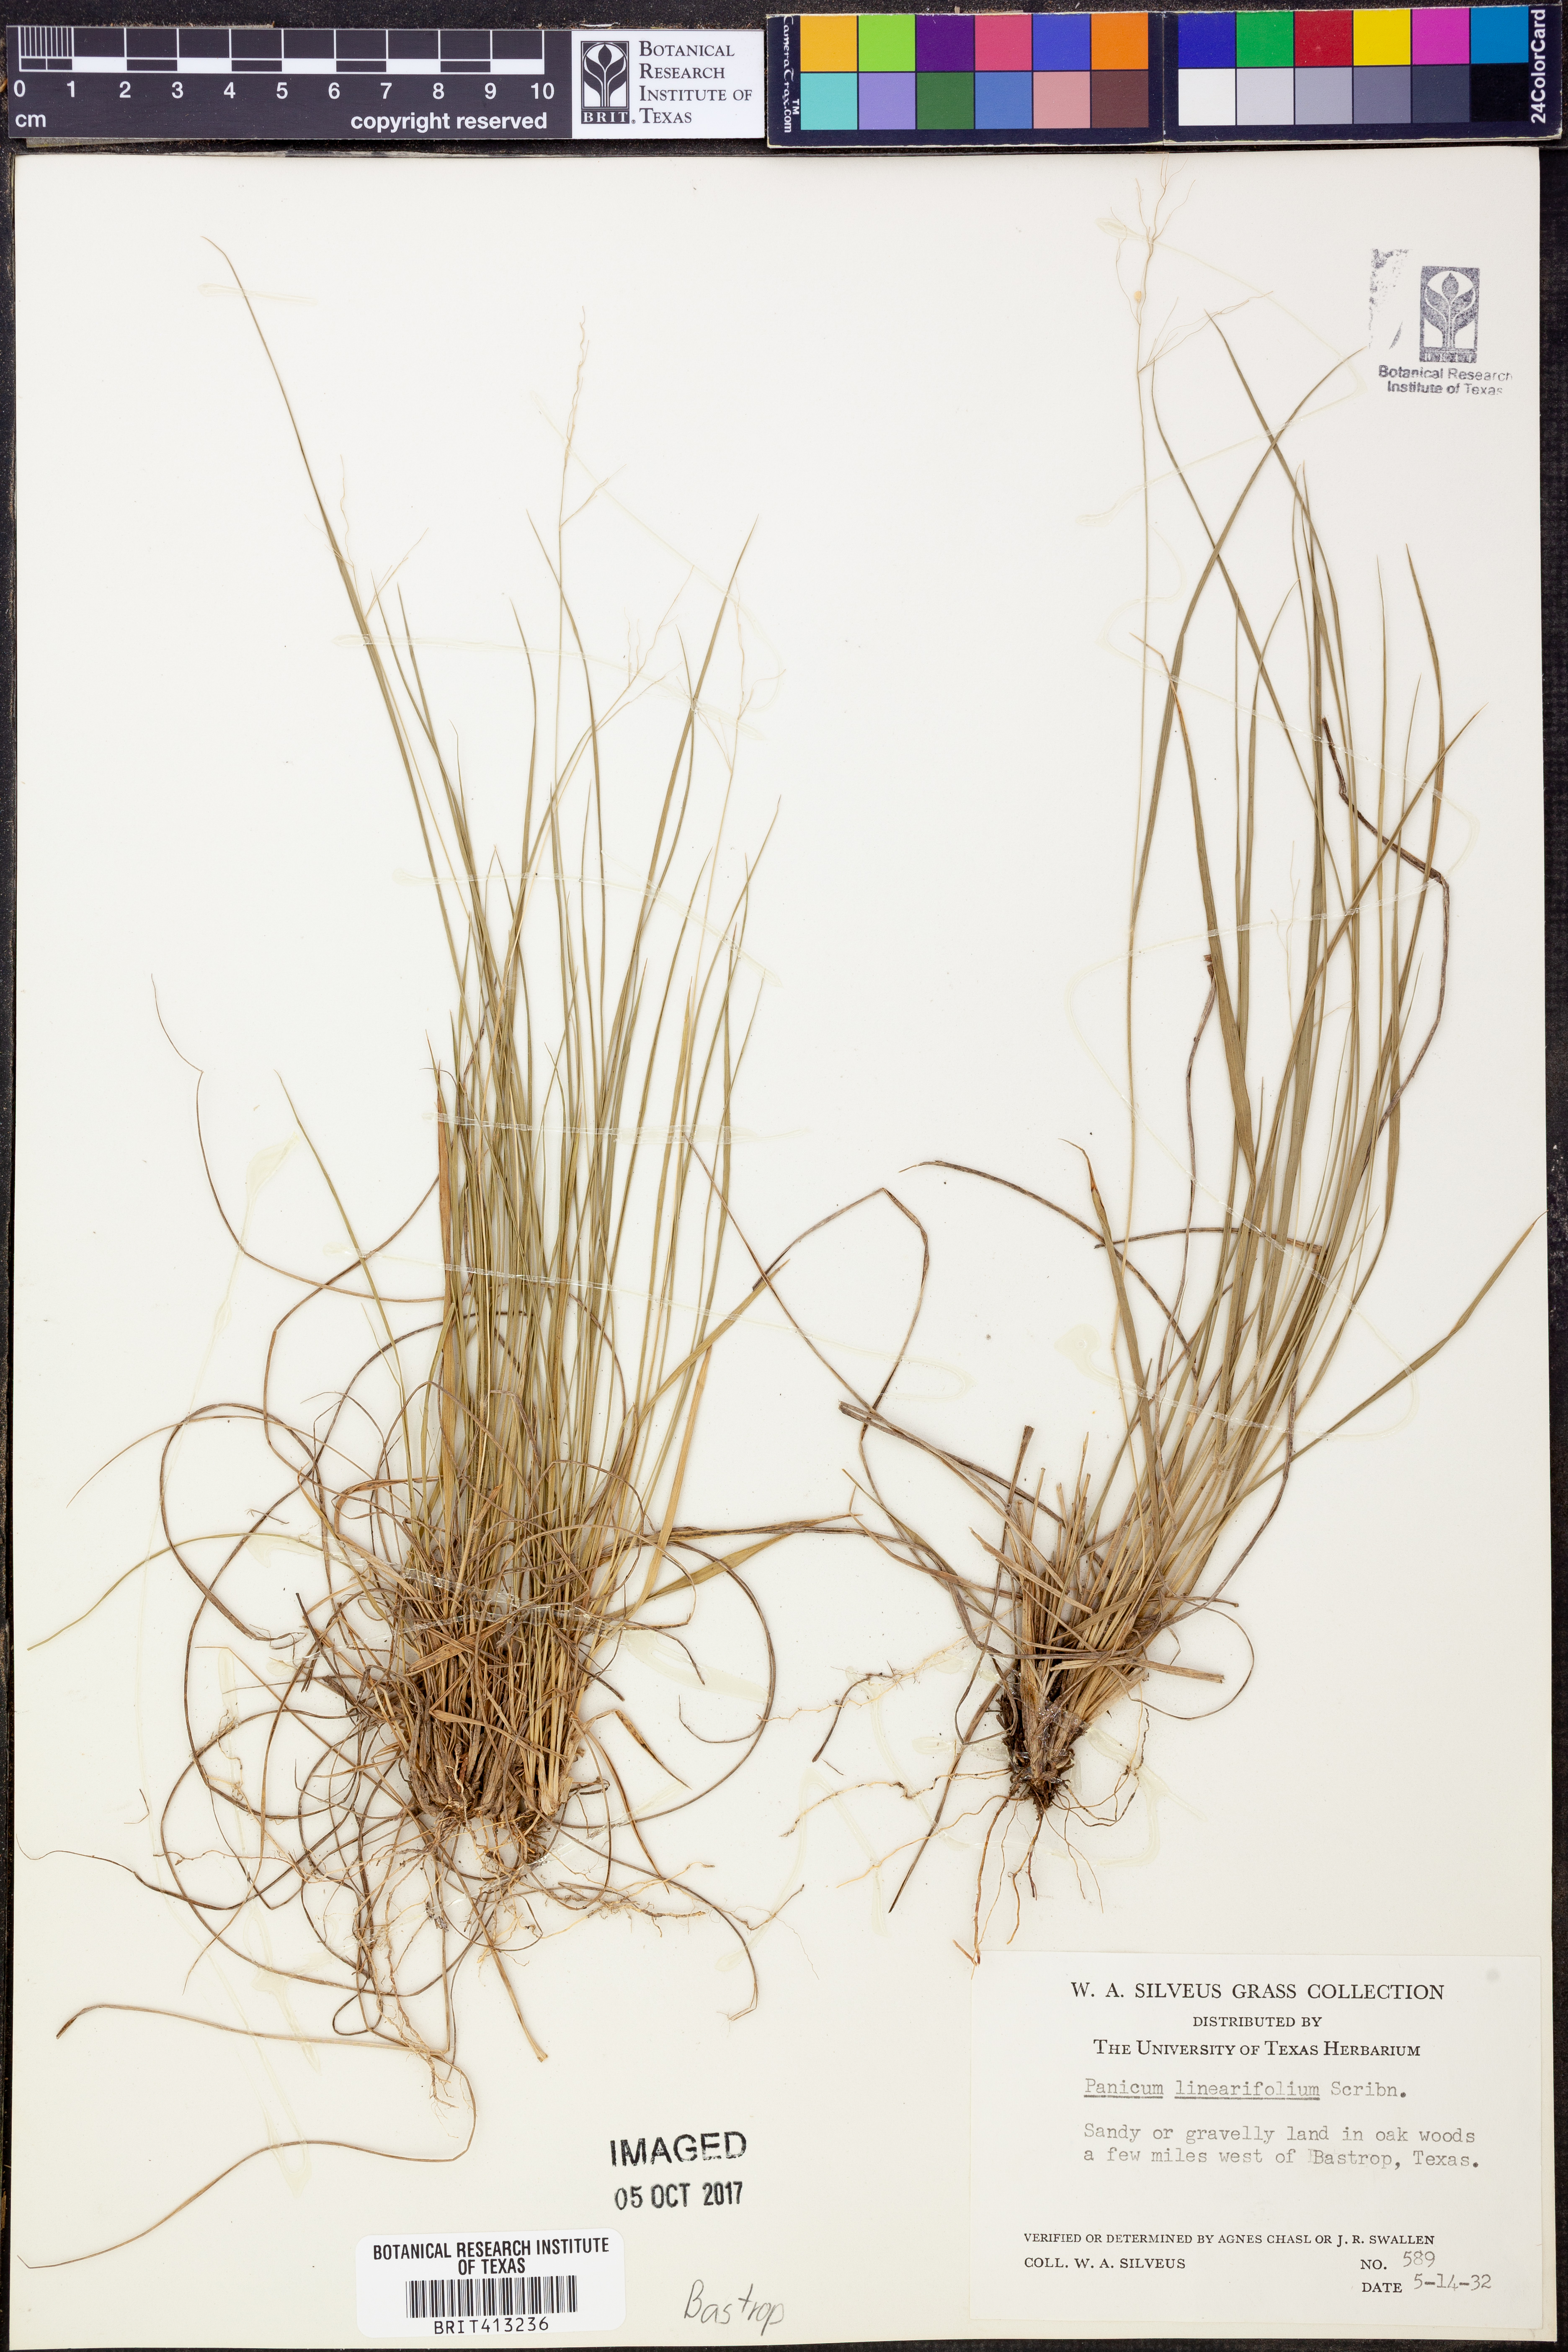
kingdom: Plantae
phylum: Tracheophyta
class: Liliopsida
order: Poales
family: Poaceae
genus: Dichanthelium
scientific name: Dichanthelium linearifolium
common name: Linear-leaved panicgrass
